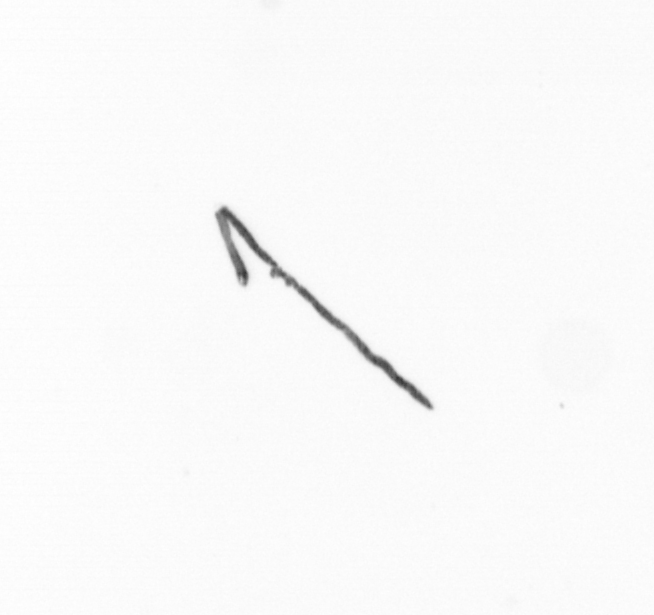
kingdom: Chromista
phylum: Ochrophyta
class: Bacillariophyceae
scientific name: Bacillariophyceae
